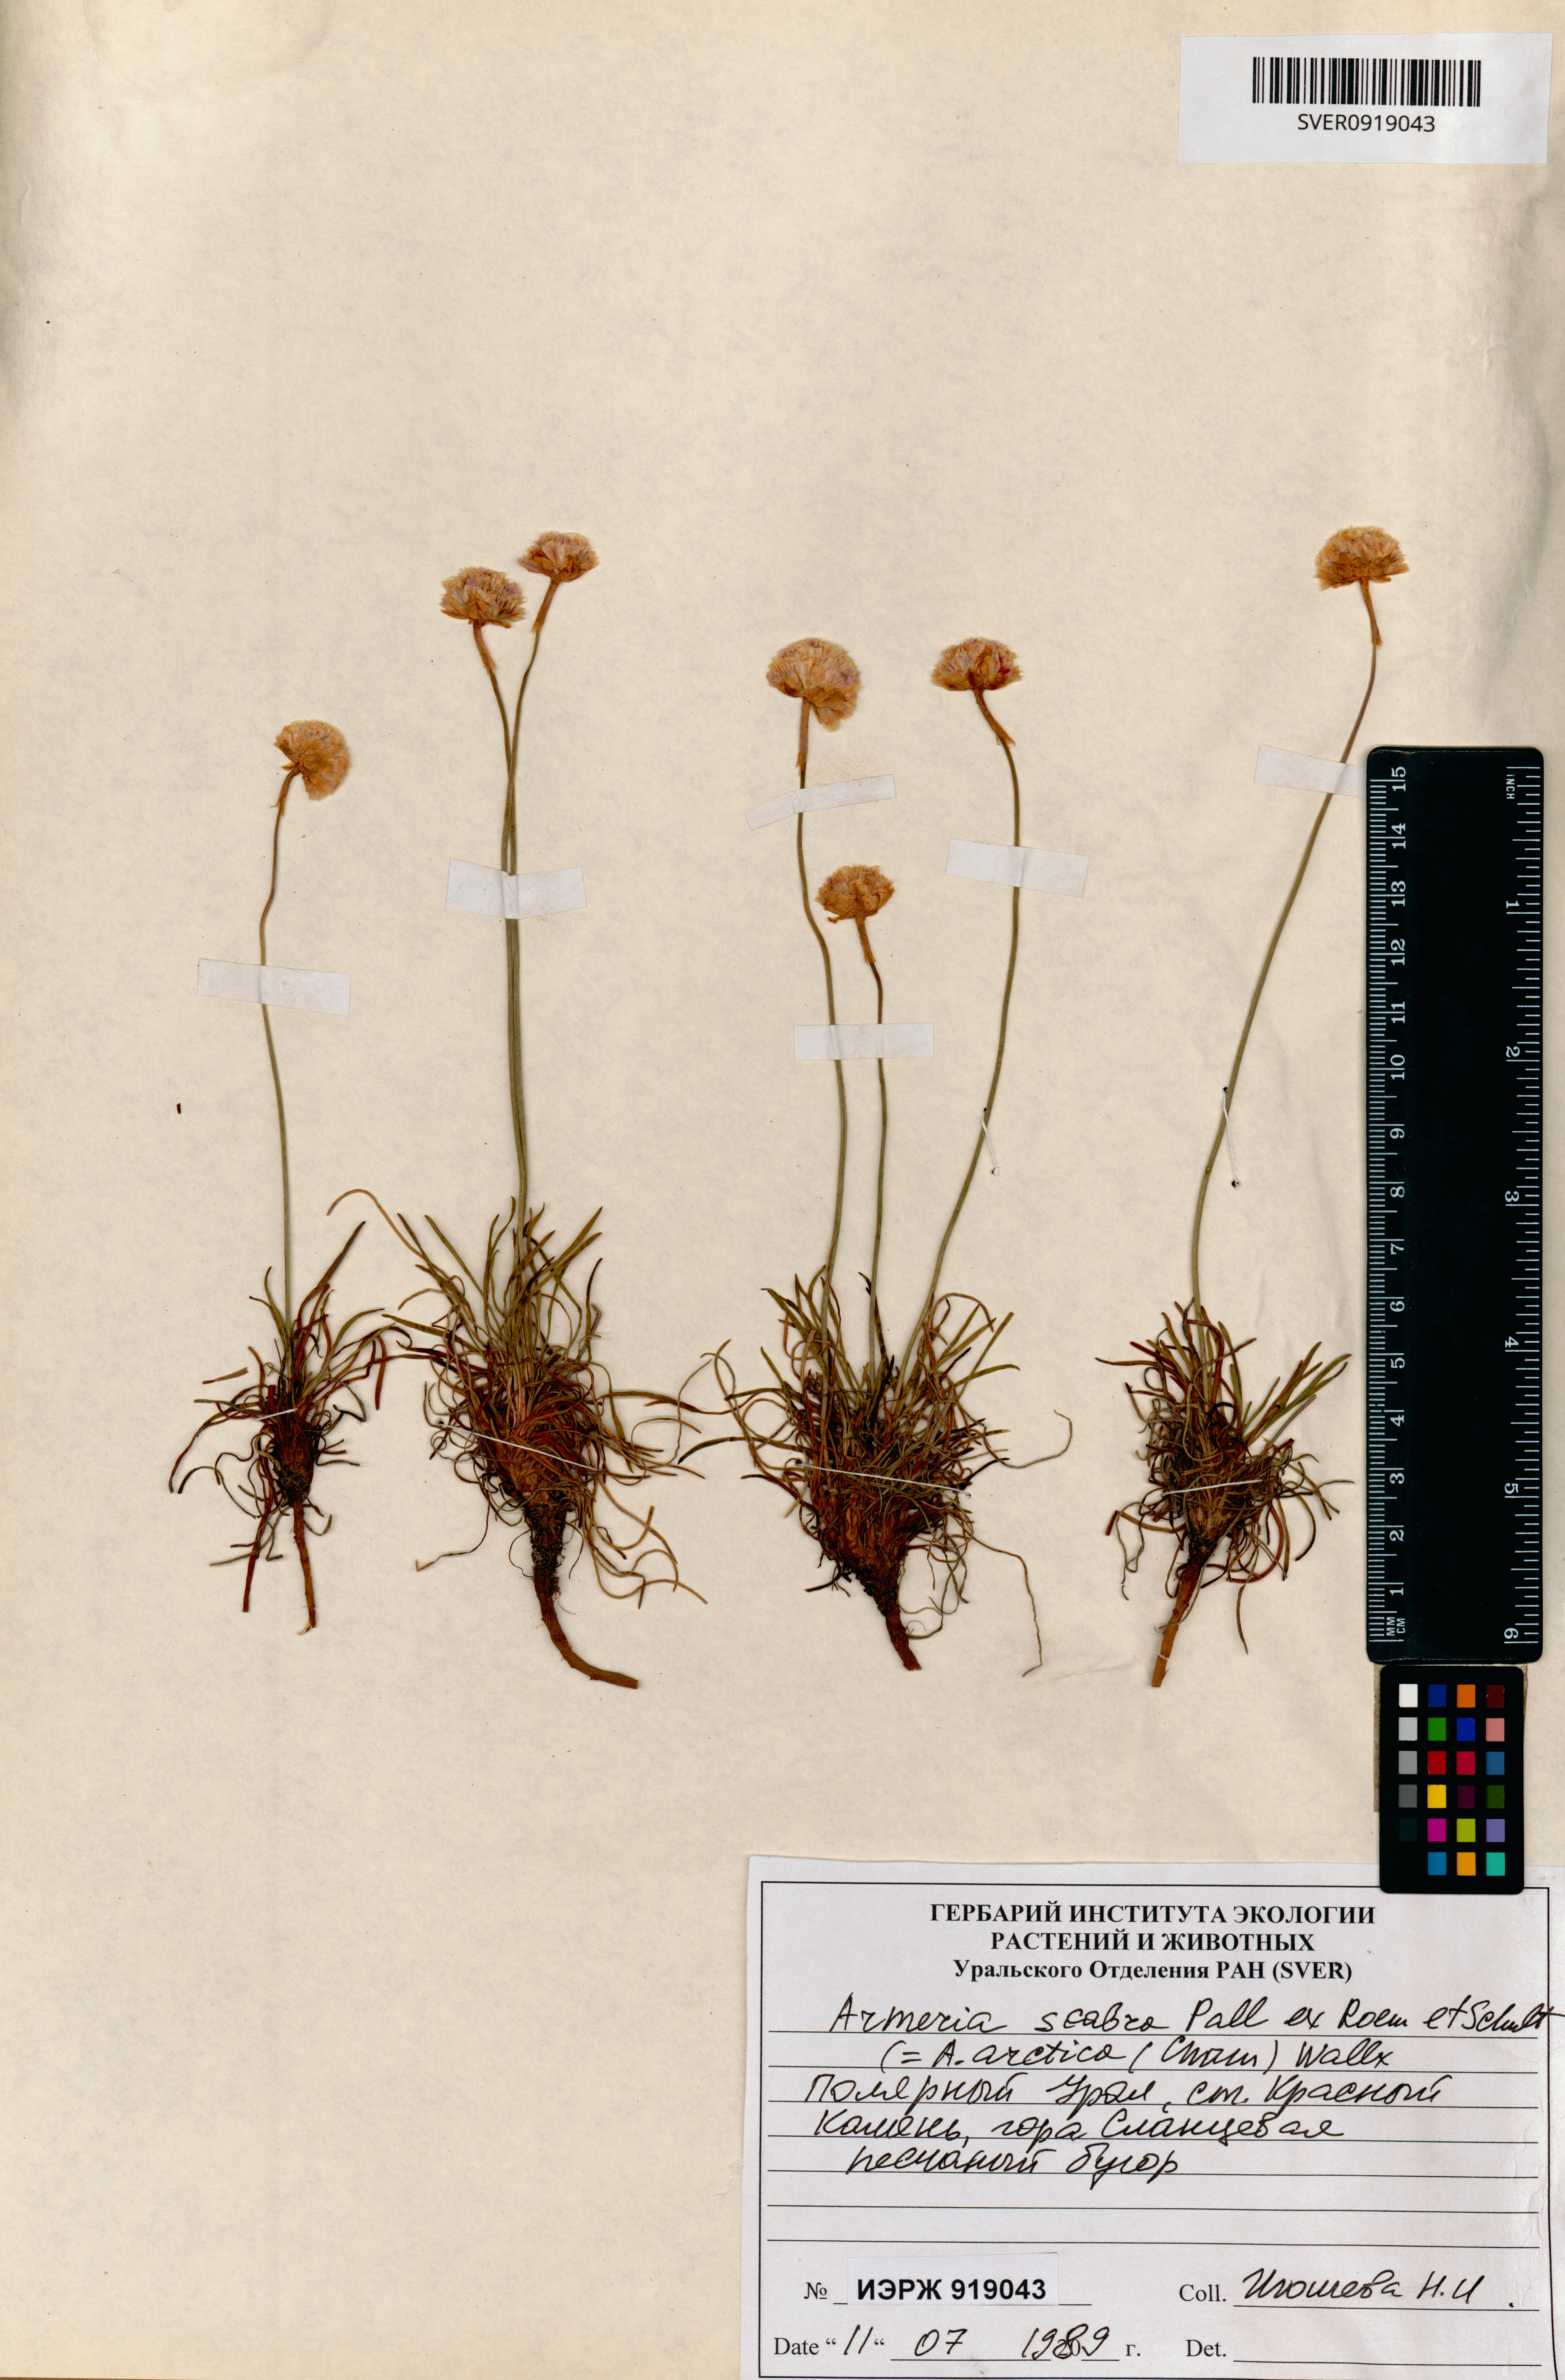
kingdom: Plantae
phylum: Tracheophyta
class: Magnoliopsida
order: Caryophyllales
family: Plumbaginaceae
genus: Armeria
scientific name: Armeria maritima
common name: Thrift
